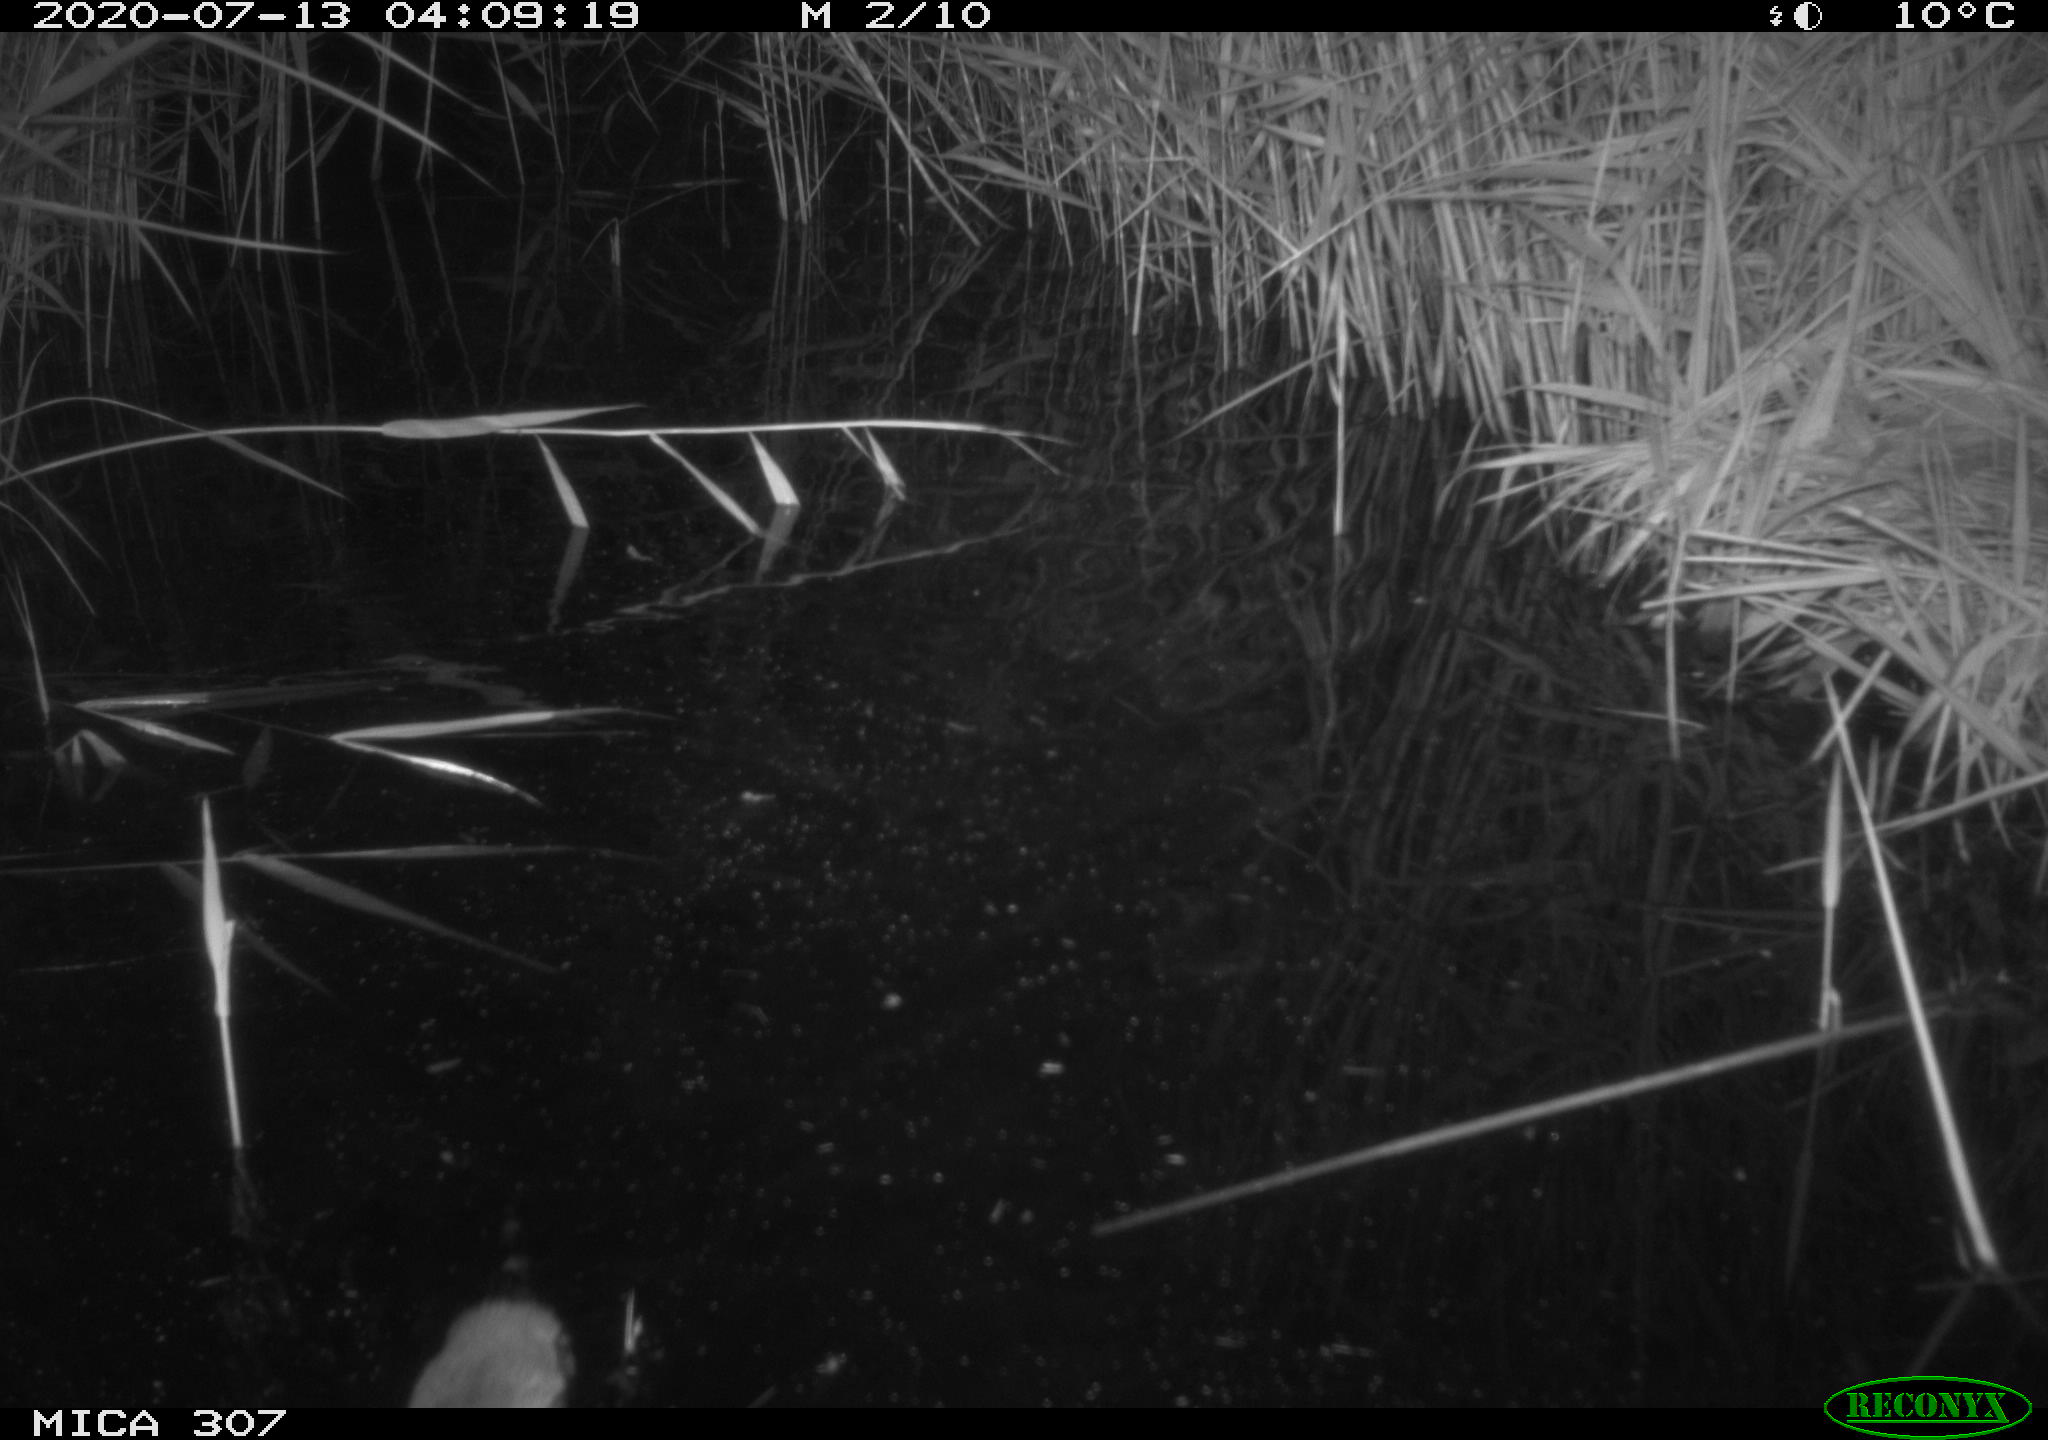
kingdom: Animalia
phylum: Chordata
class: Mammalia
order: Rodentia
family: Muridae
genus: Rattus
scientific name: Rattus norvegicus
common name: Brown rat
